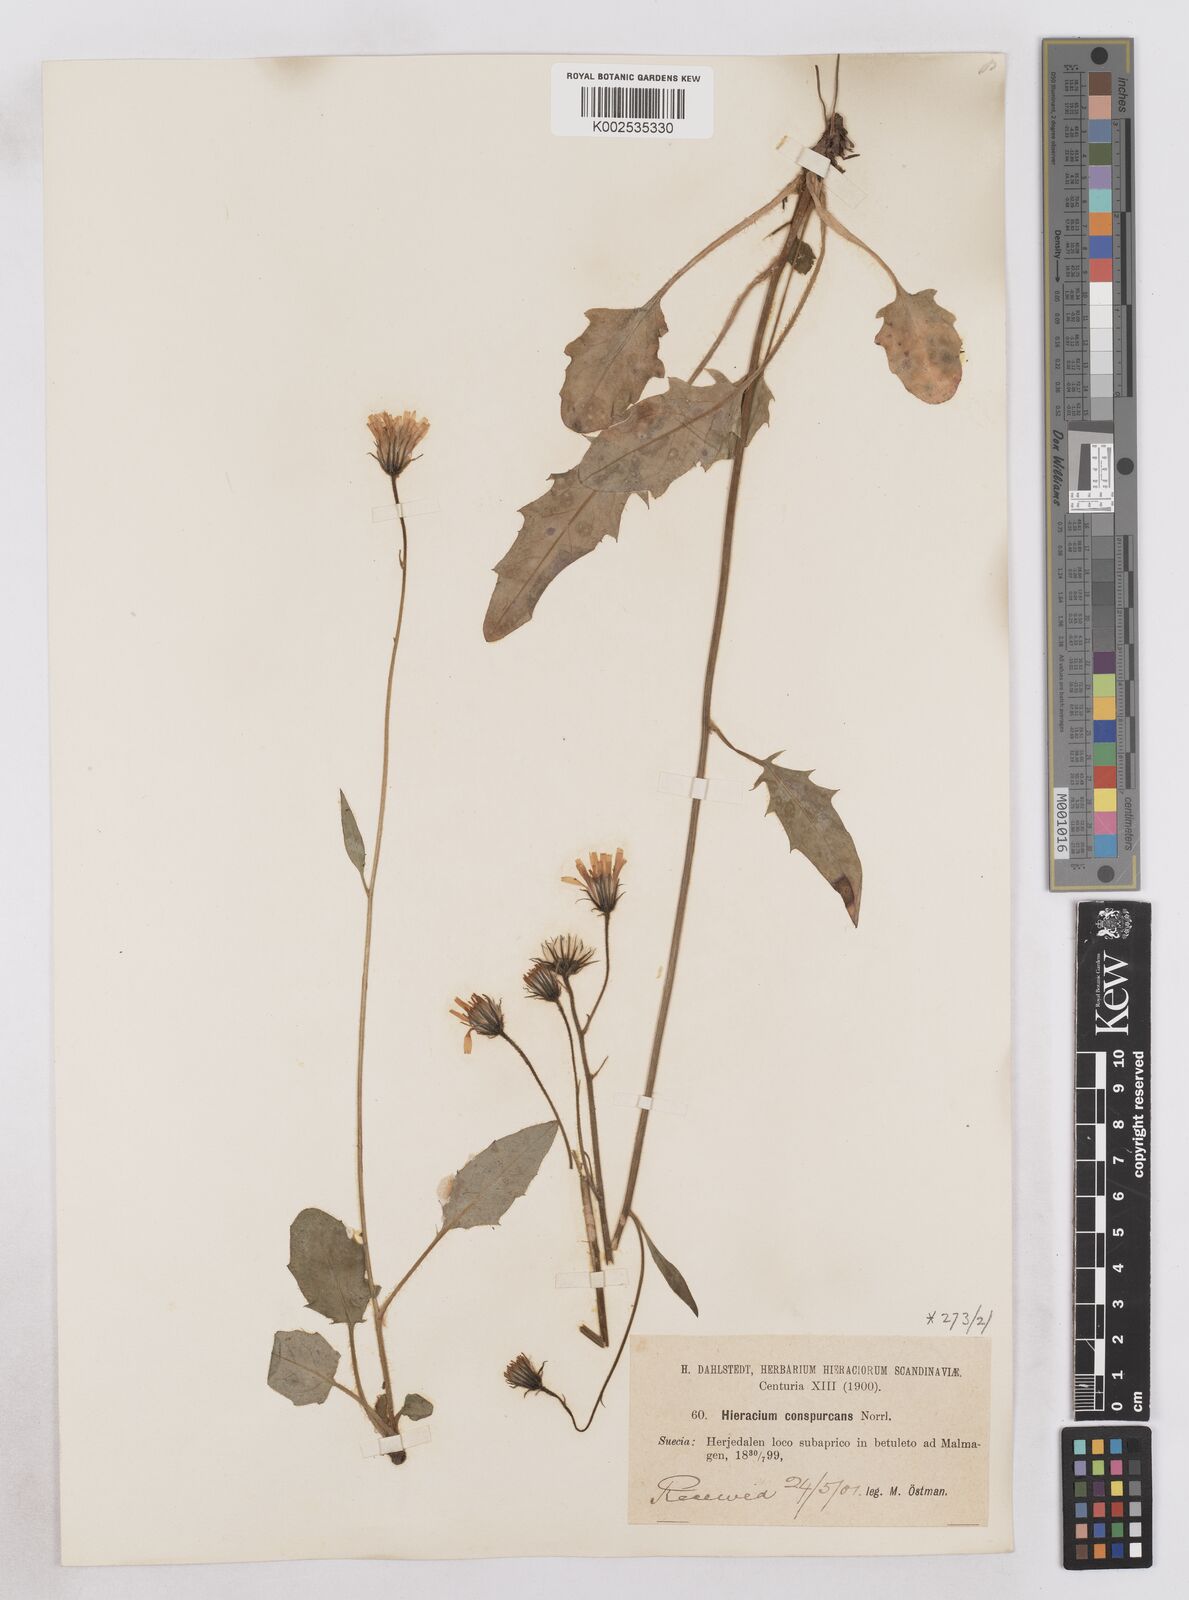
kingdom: Plantae
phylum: Tracheophyta
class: Magnoliopsida
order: Asterales
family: Asteraceae
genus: Hieracium
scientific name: Hieracium conspurcans
